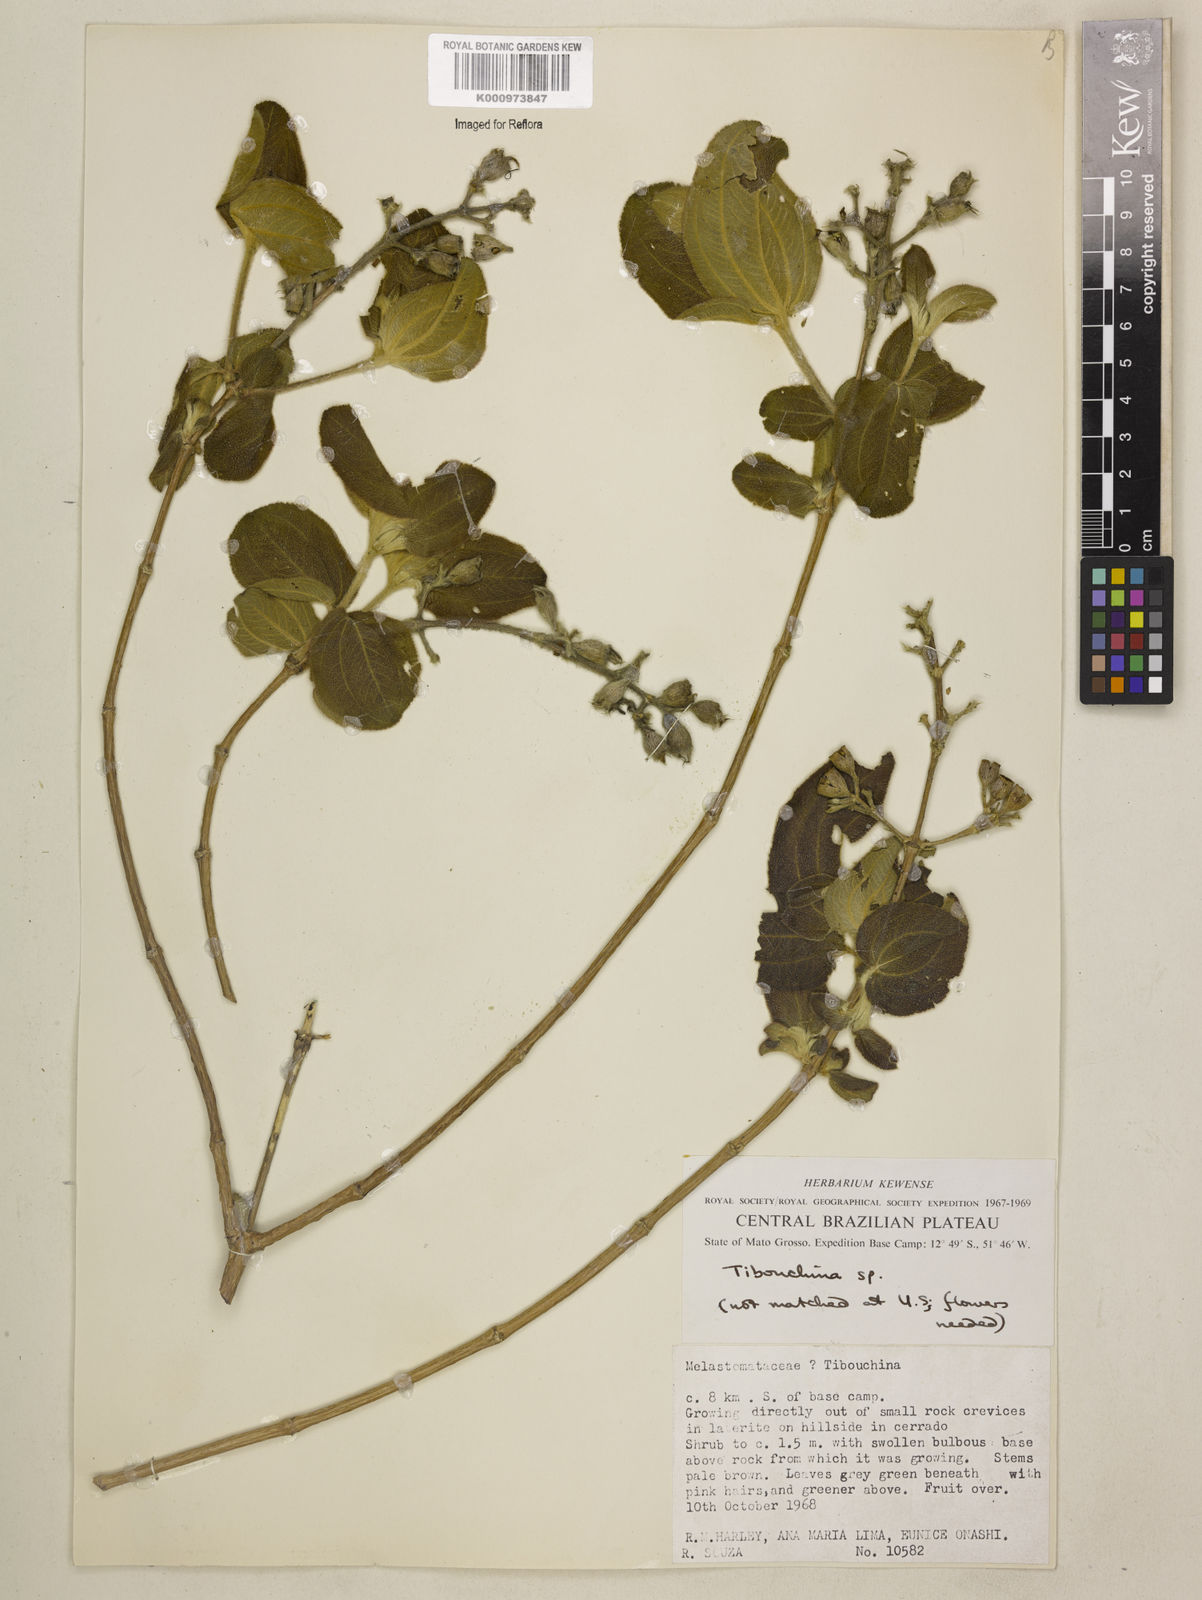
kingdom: Plantae
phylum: Tracheophyta
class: Magnoliopsida
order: Myrtales
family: Melastomataceae
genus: Tibouchina
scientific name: Tibouchina
